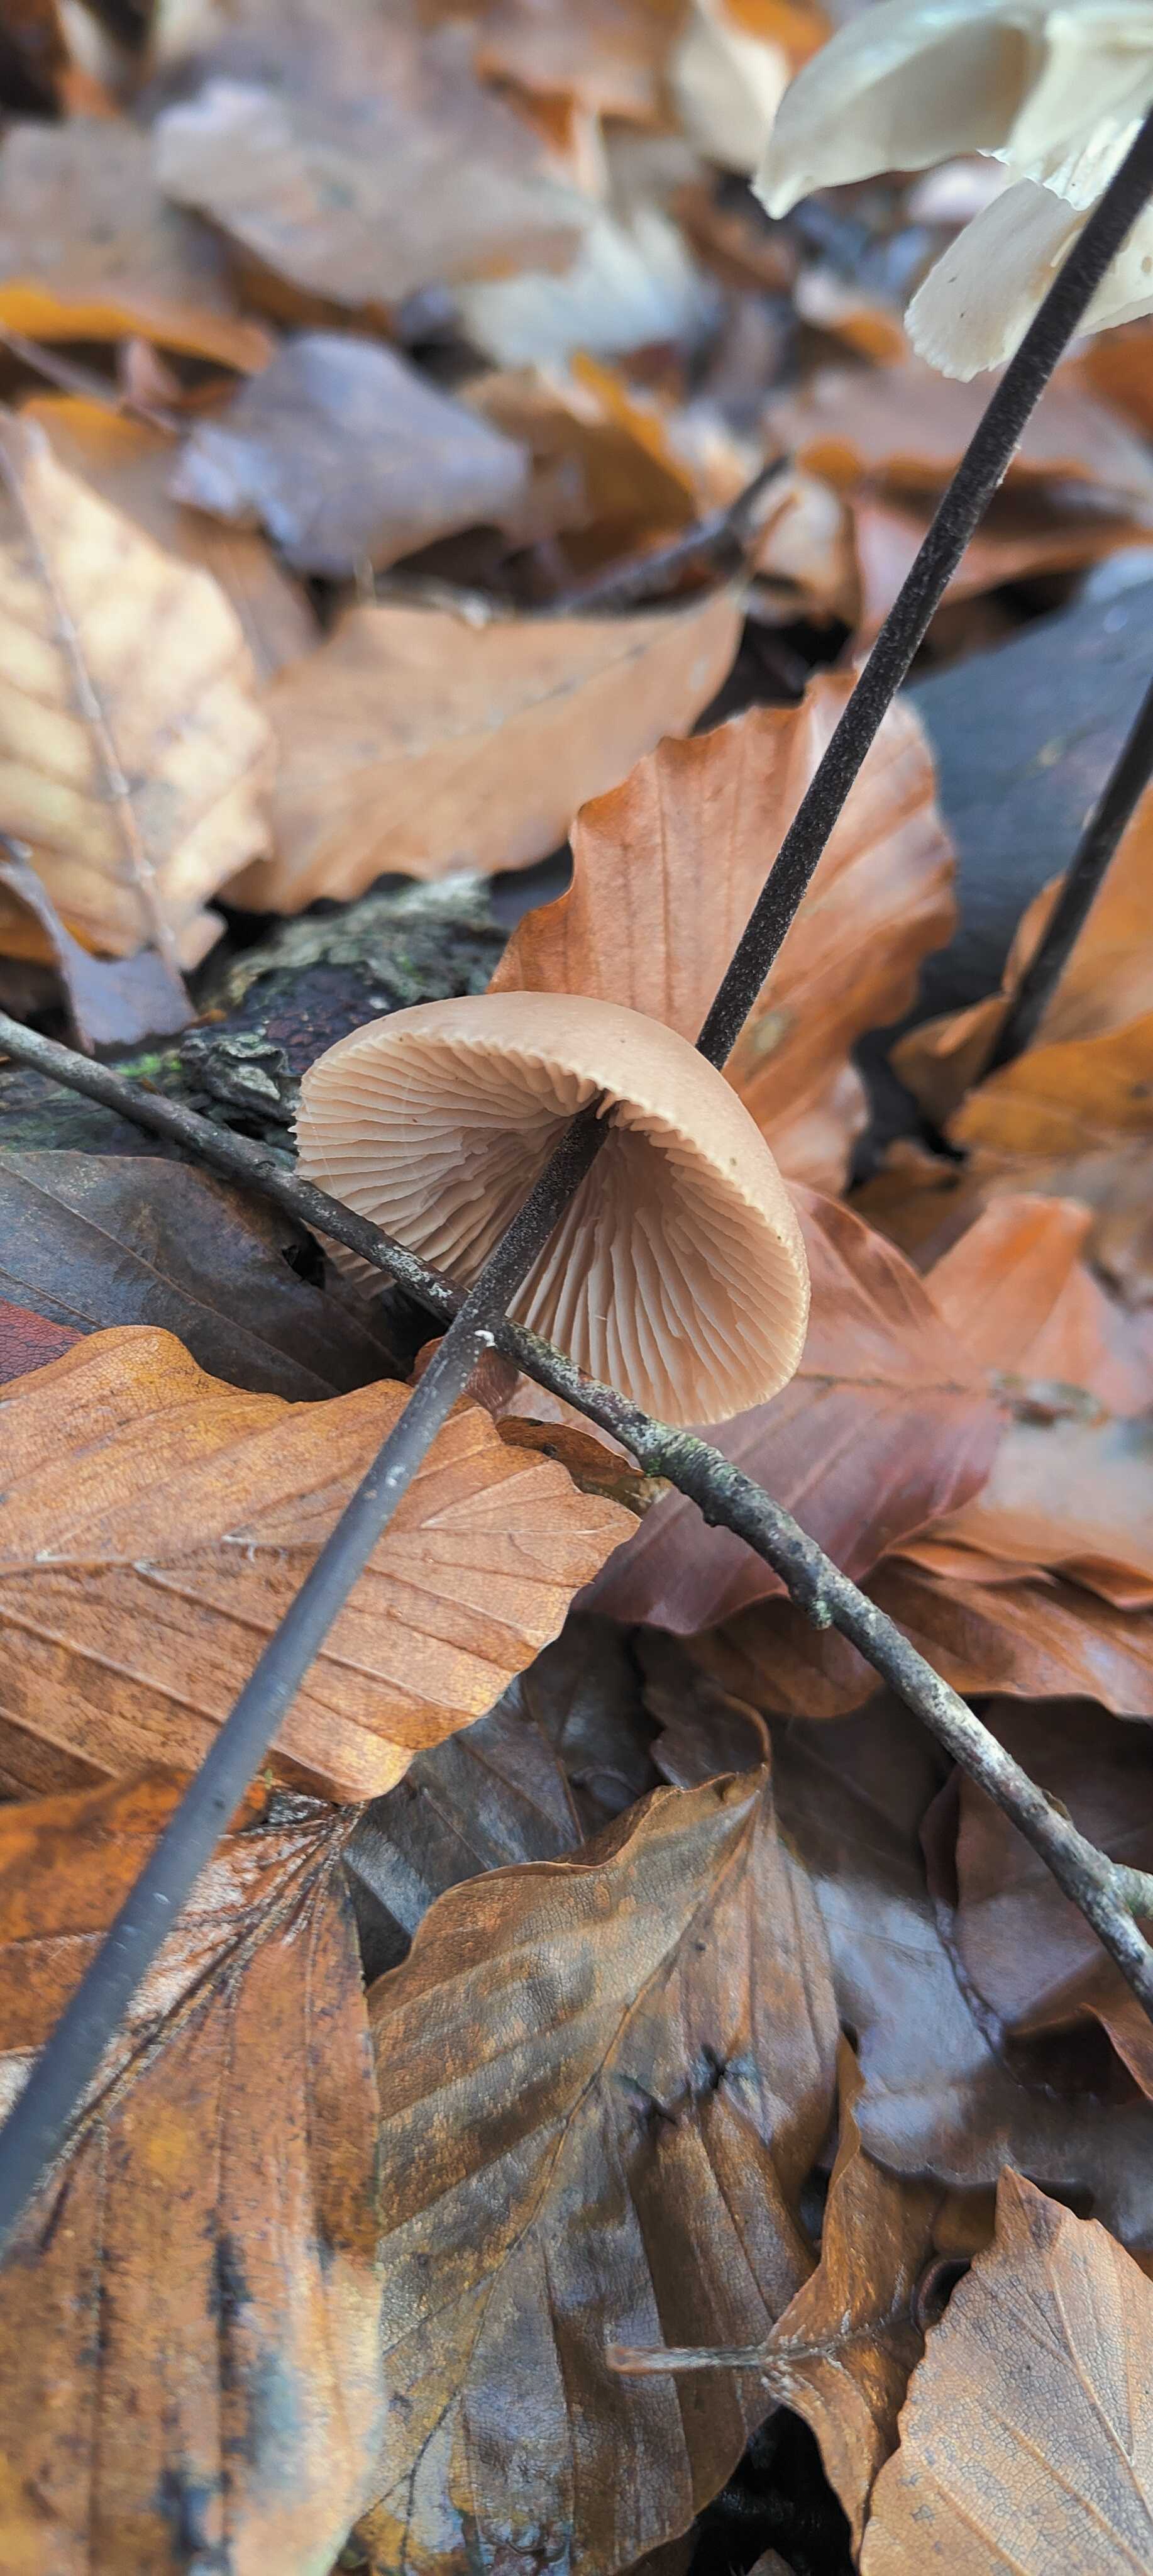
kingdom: Fungi
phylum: Basidiomycota
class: Agaricomycetes
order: Agaricales
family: Omphalotaceae
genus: Mycetinis
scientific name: Mycetinis alliaceus
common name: stor løghat
